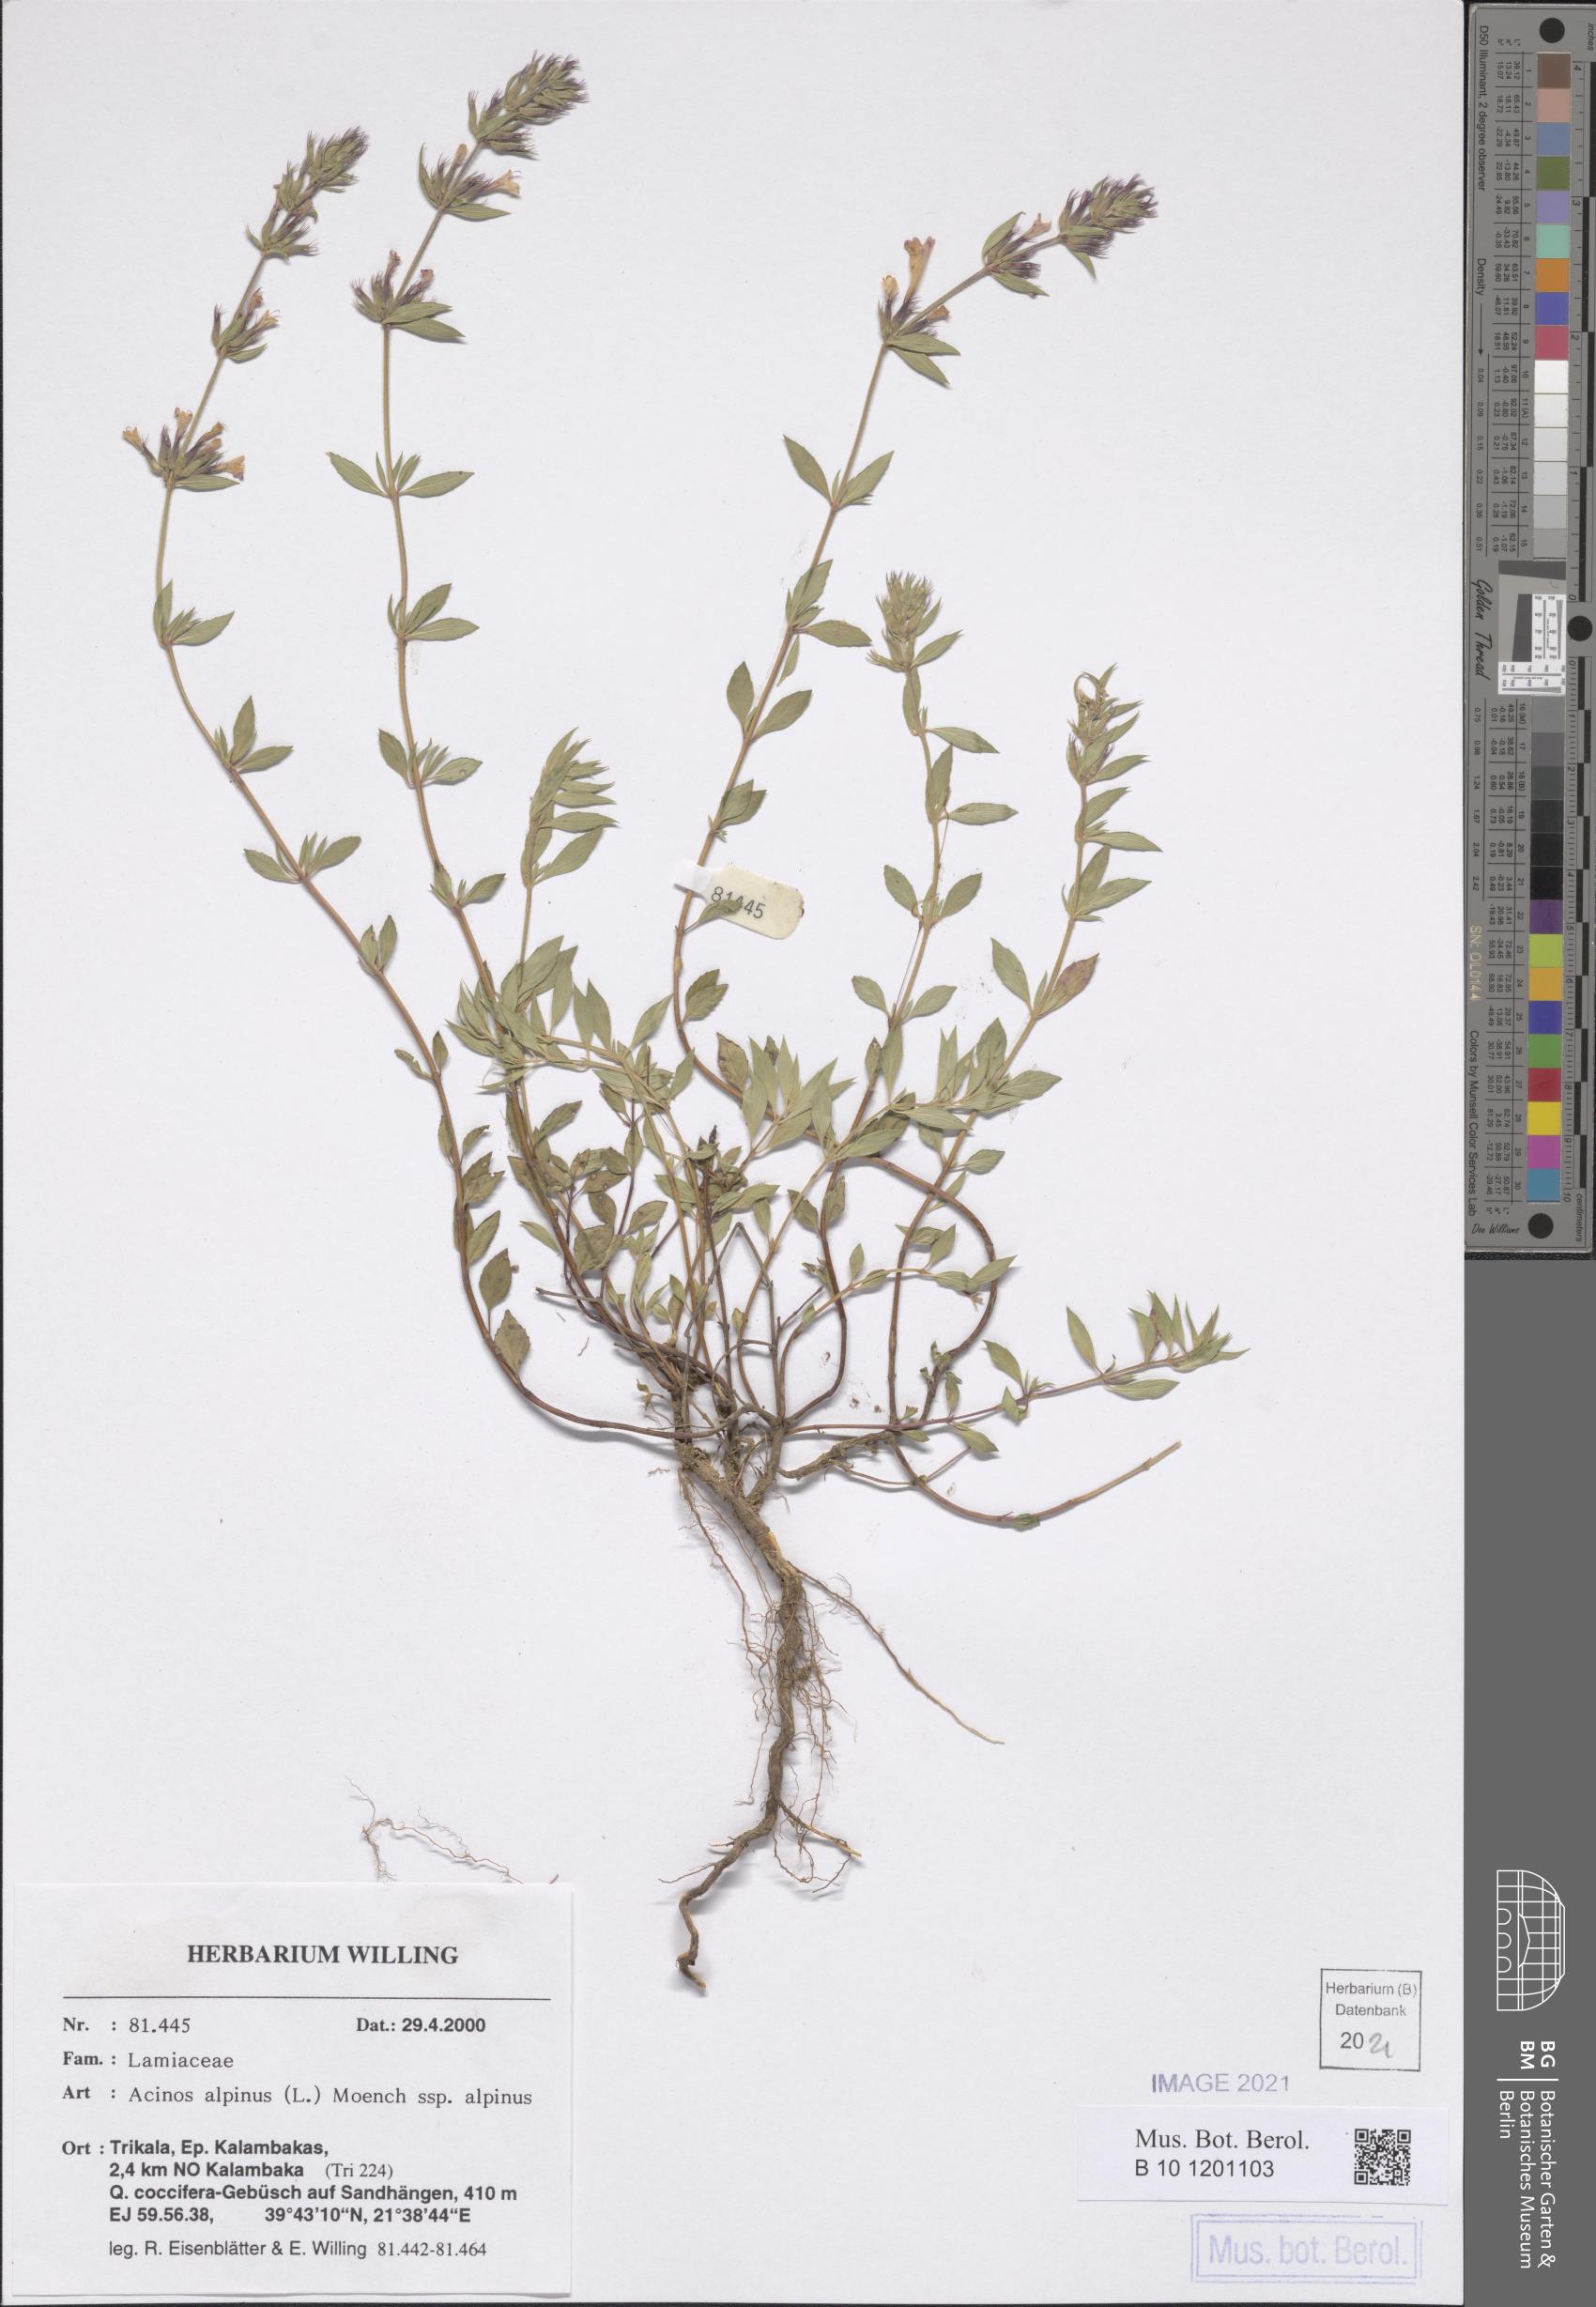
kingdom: Plantae
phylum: Tracheophyta
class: Magnoliopsida
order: Lamiales
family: Lamiaceae
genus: Clinopodium
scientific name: Clinopodium alpinum
